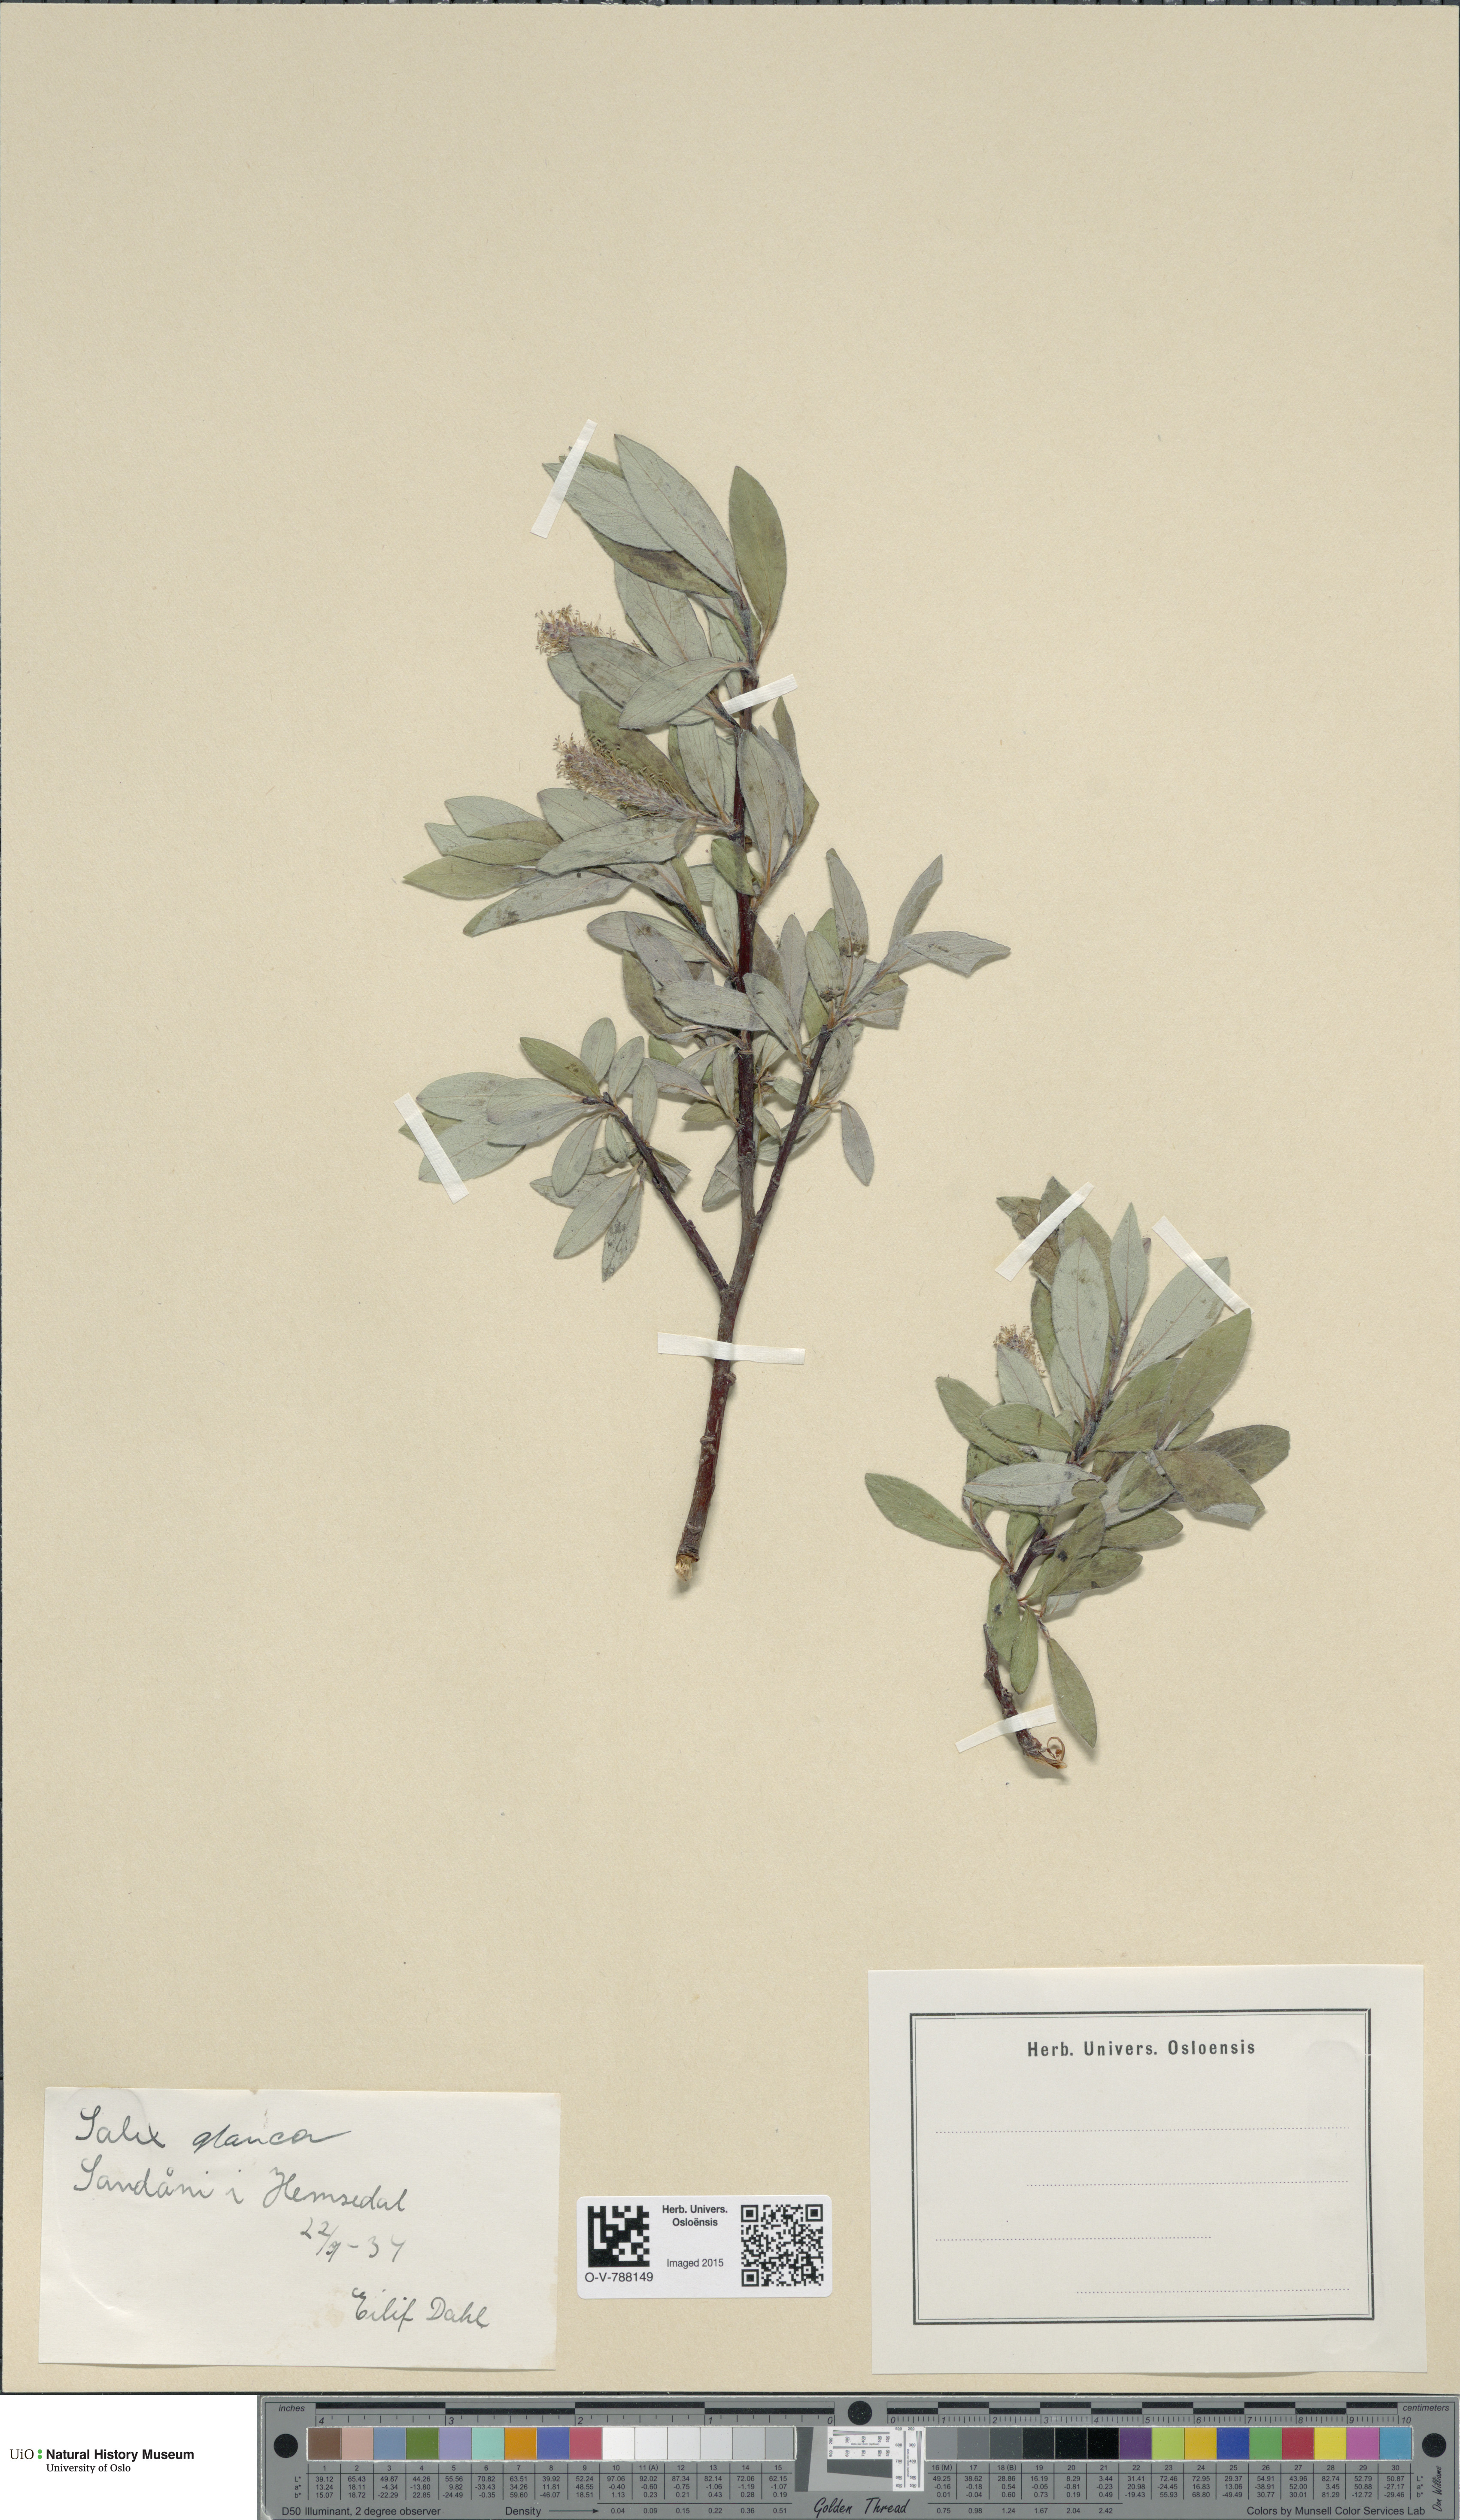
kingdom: Plantae
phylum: Tracheophyta
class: Magnoliopsida
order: Malpighiales
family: Salicaceae
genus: Salix
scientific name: Salix glauca
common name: Glaucous willow
